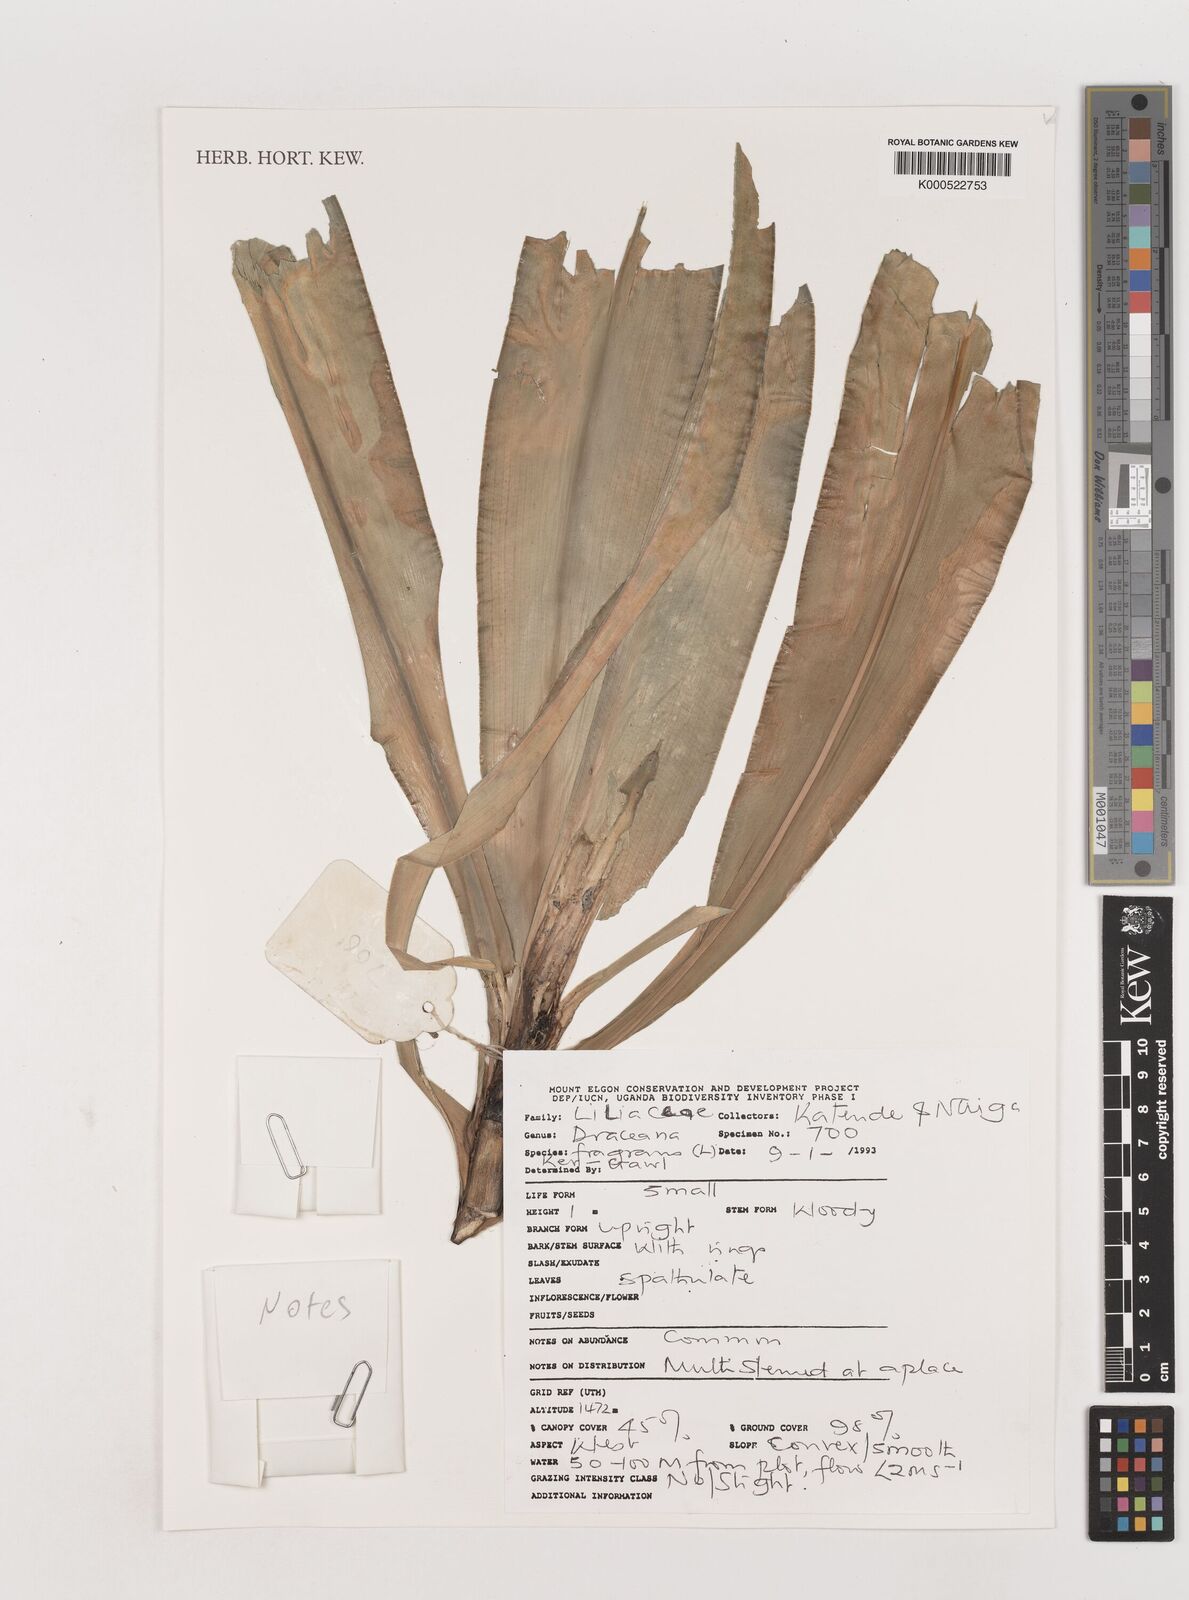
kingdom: Plantae
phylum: Tracheophyta
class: Liliopsida
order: Asparagales
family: Asparagaceae
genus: Dracaena
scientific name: Dracaena fragrans
